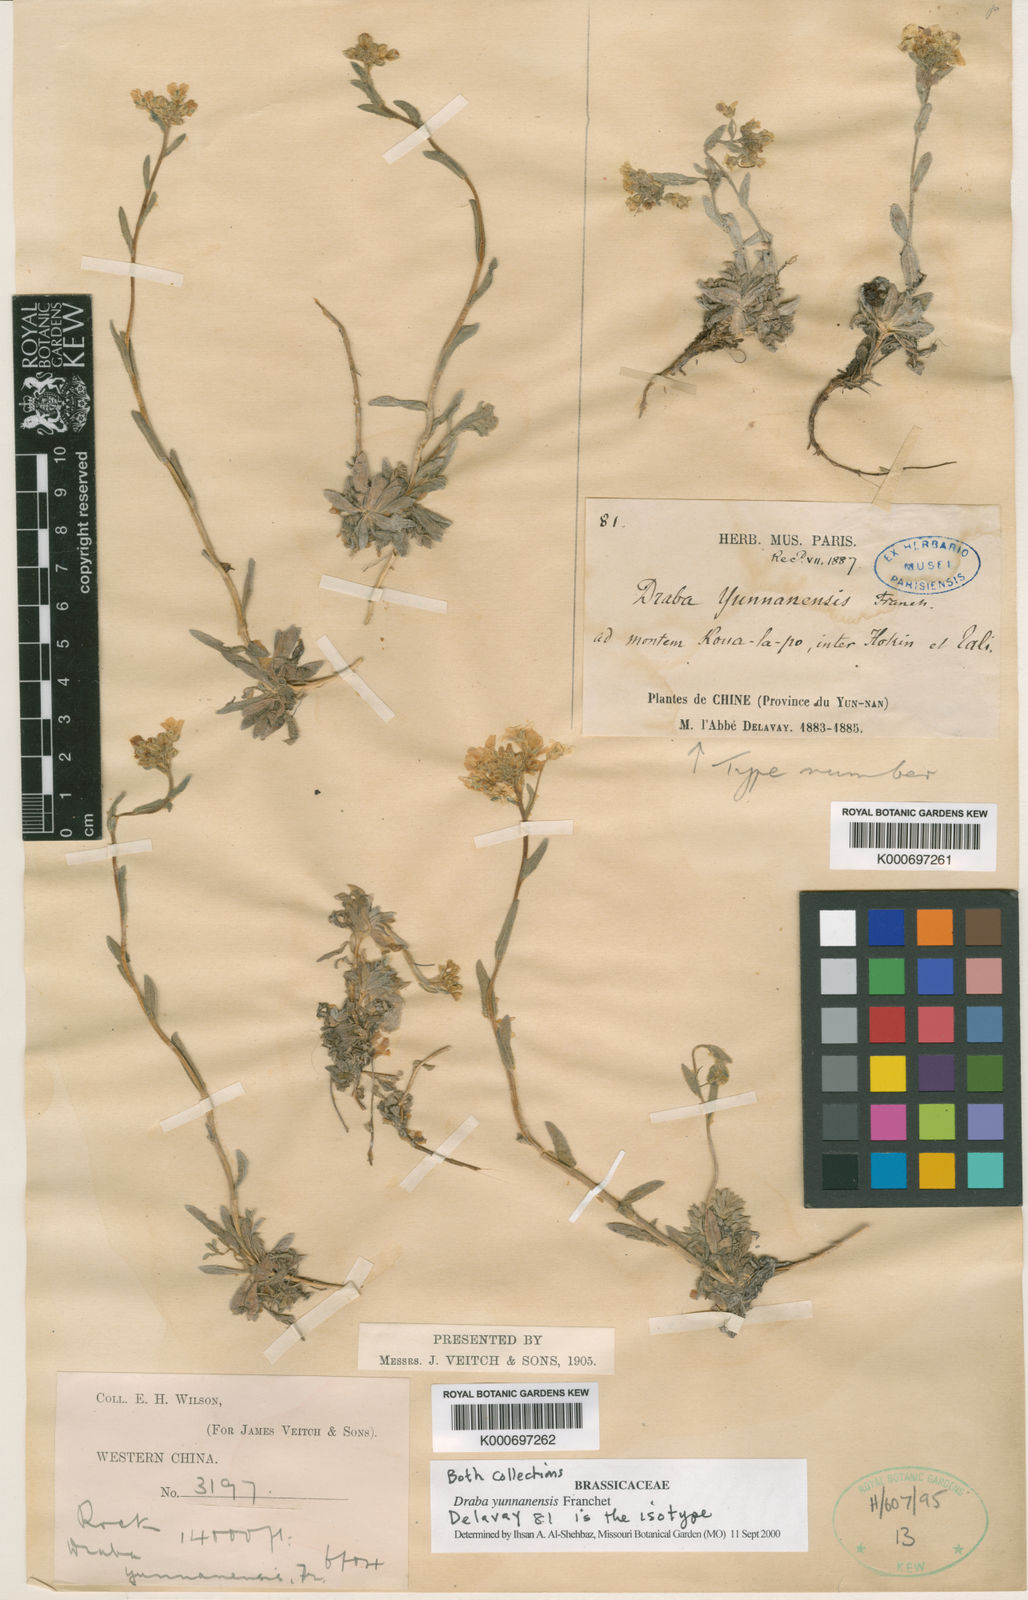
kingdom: Plantae
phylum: Tracheophyta
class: Magnoliopsida
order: Brassicales
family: Brassicaceae
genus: Draba
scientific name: Draba yunnanensis
